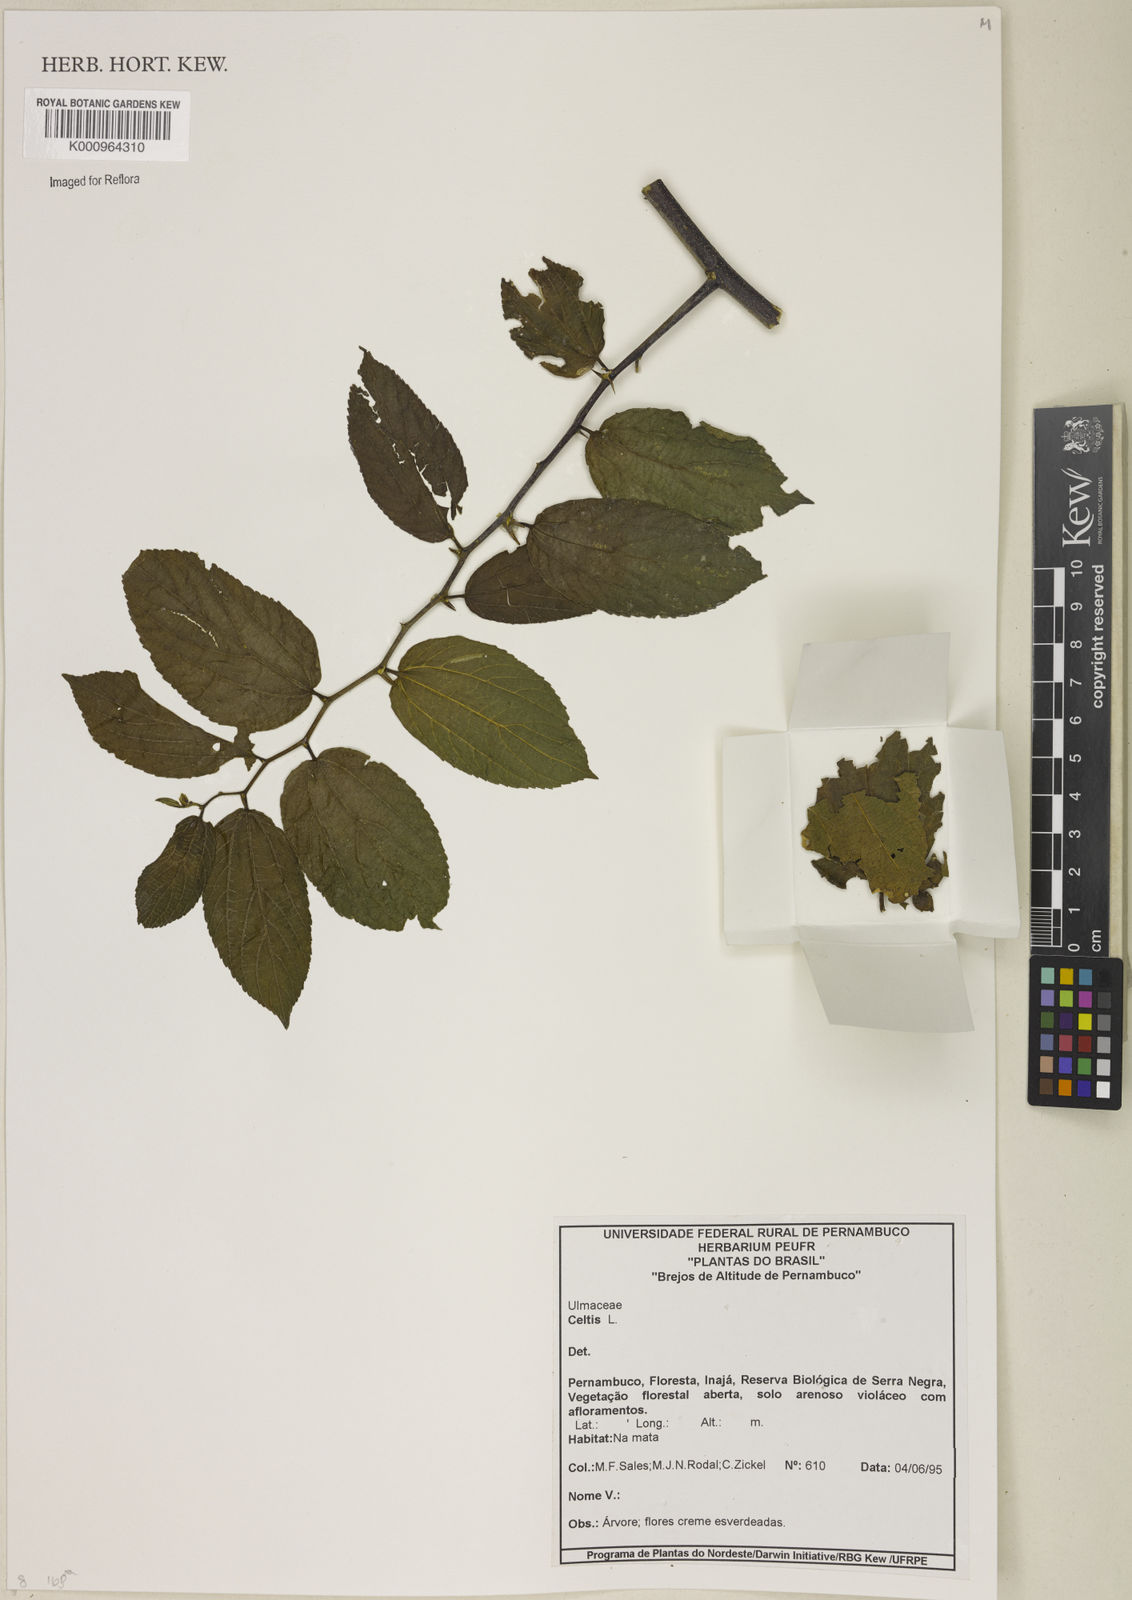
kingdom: Plantae
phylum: Tracheophyta
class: Magnoliopsida
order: Rosales
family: Cannabaceae
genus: Celtis
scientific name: Celtis
